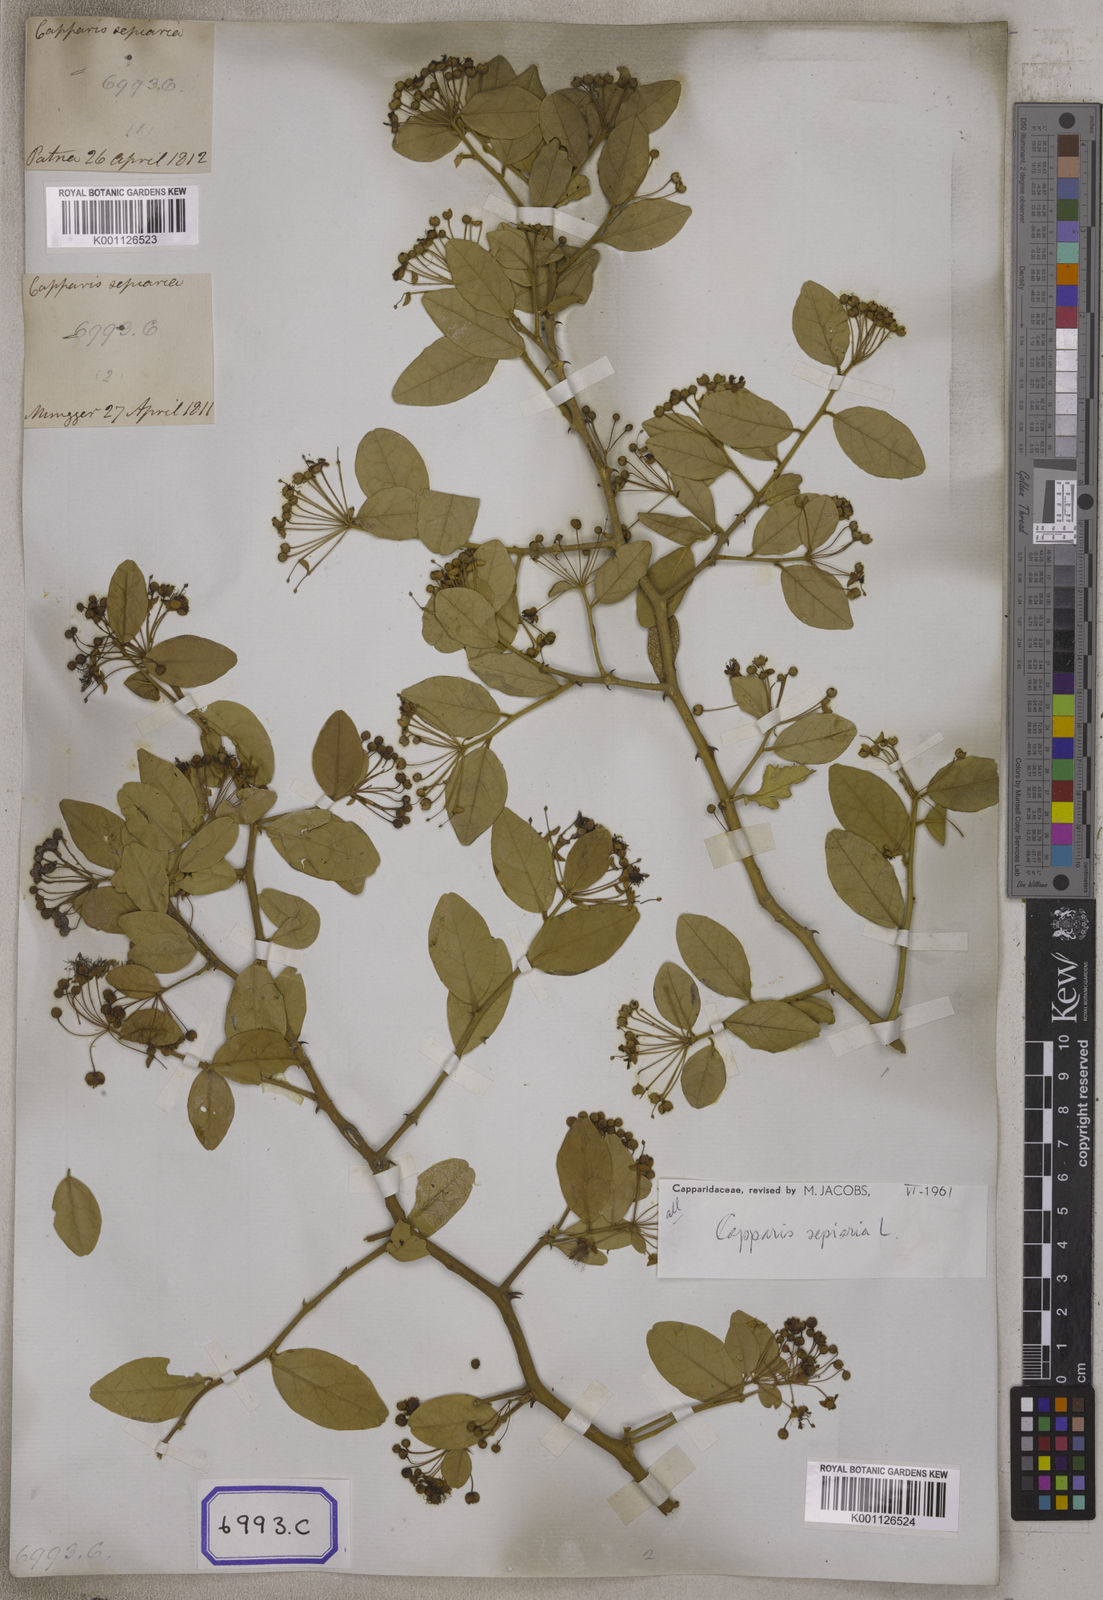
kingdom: Plantae
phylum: Tracheophyta
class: Magnoliopsida
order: Brassicales
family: Capparaceae
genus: Capparis
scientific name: Capparis
